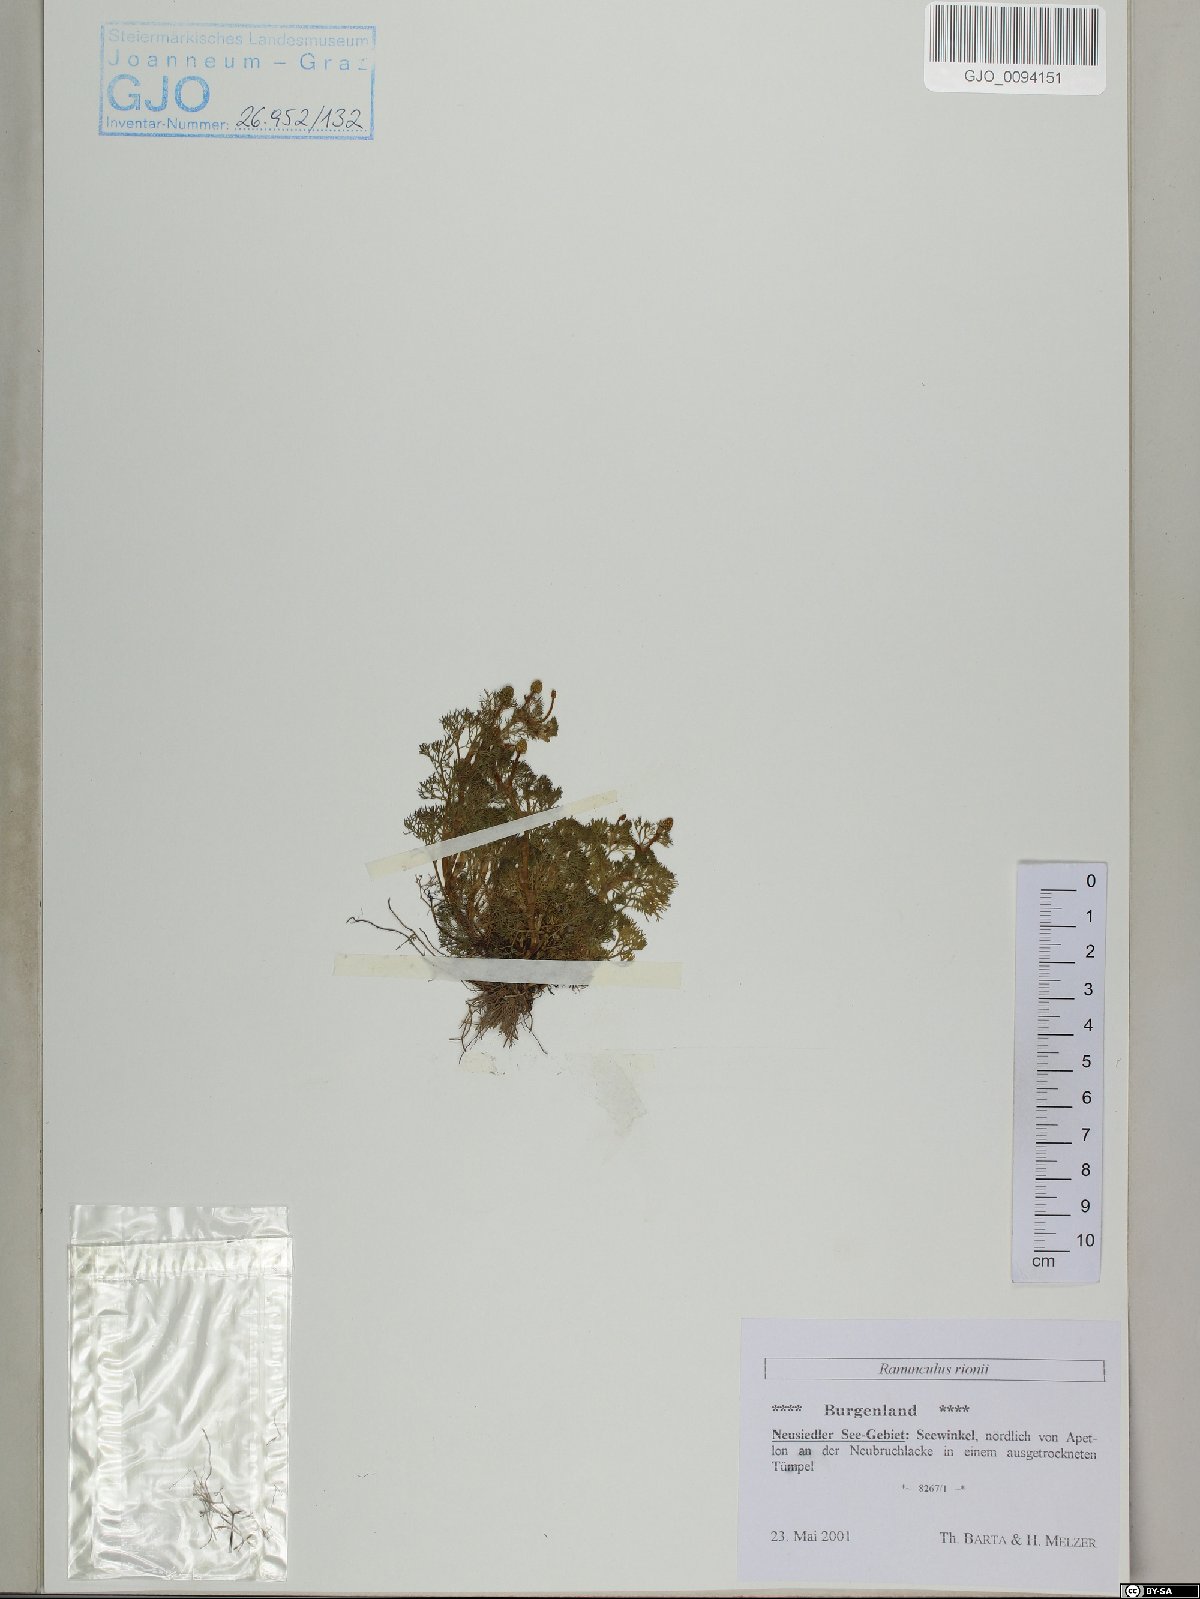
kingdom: Plantae
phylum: Tracheophyta
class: Magnoliopsida
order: Ranunculales
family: Ranunculaceae
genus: Ranunculus
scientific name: Ranunculus rionii
